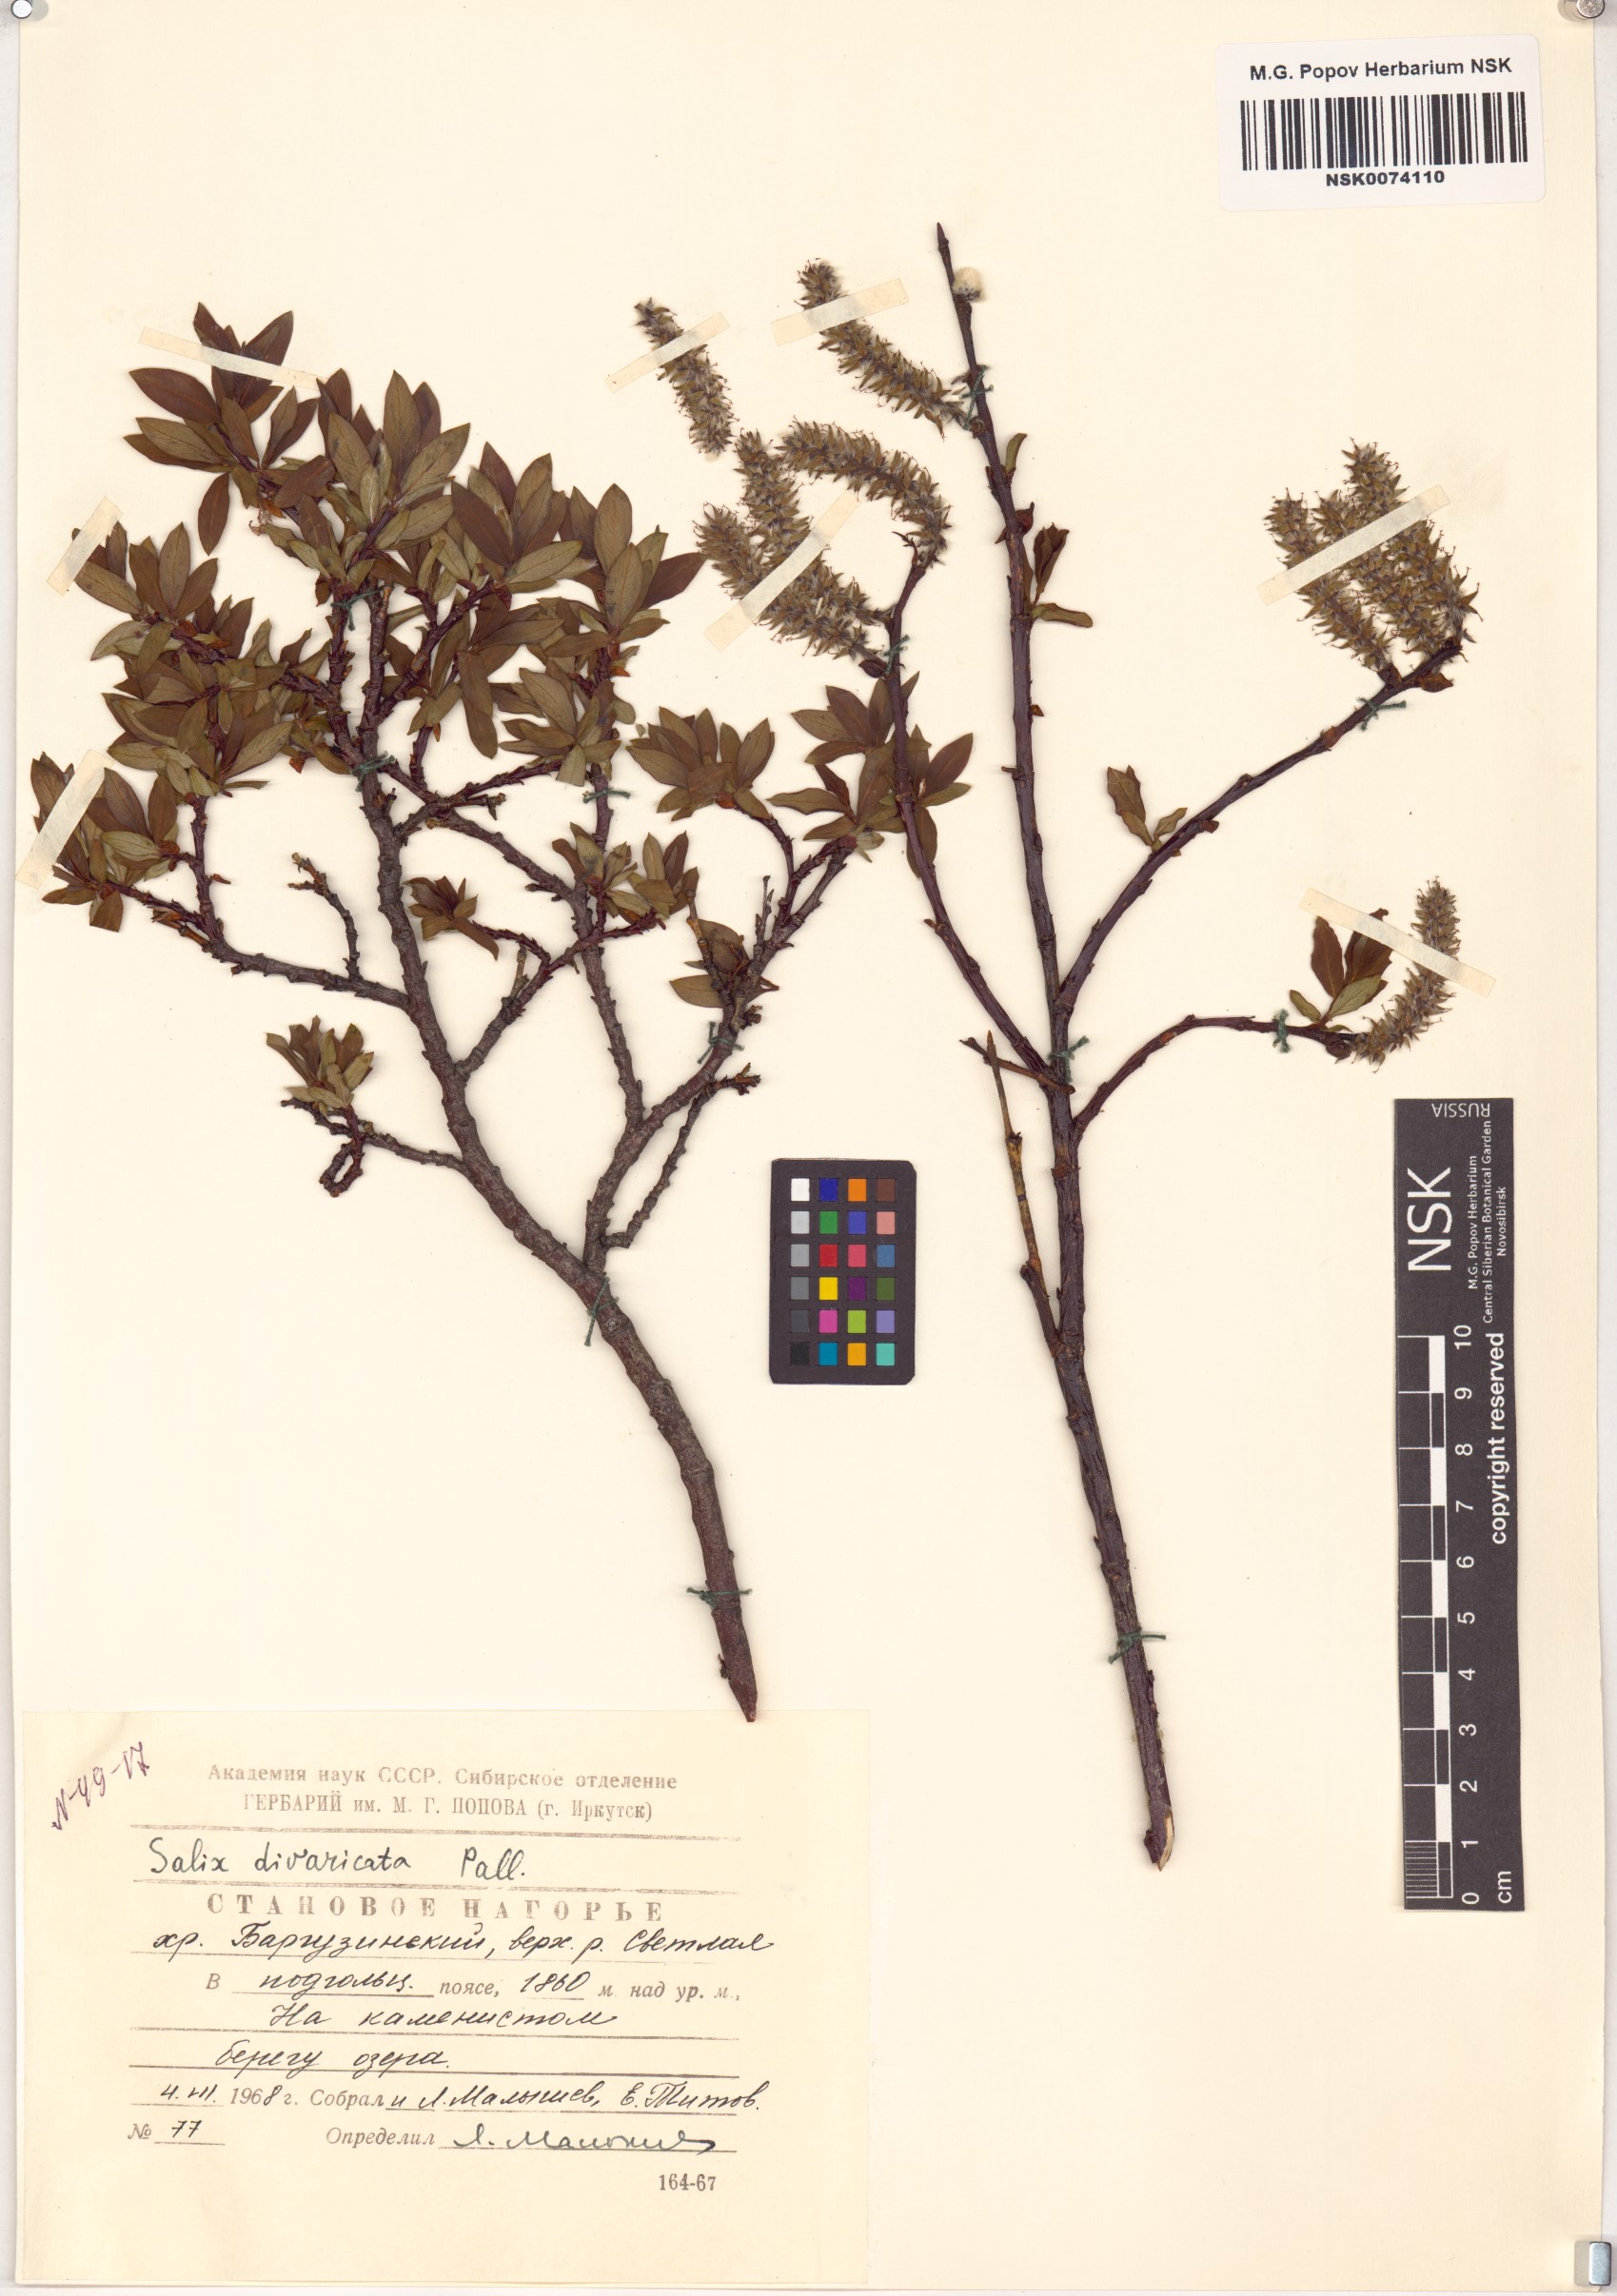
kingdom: Plantae
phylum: Tracheophyta
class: Magnoliopsida
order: Malpighiales
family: Salicaceae
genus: Salix
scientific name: Salix divaricata
